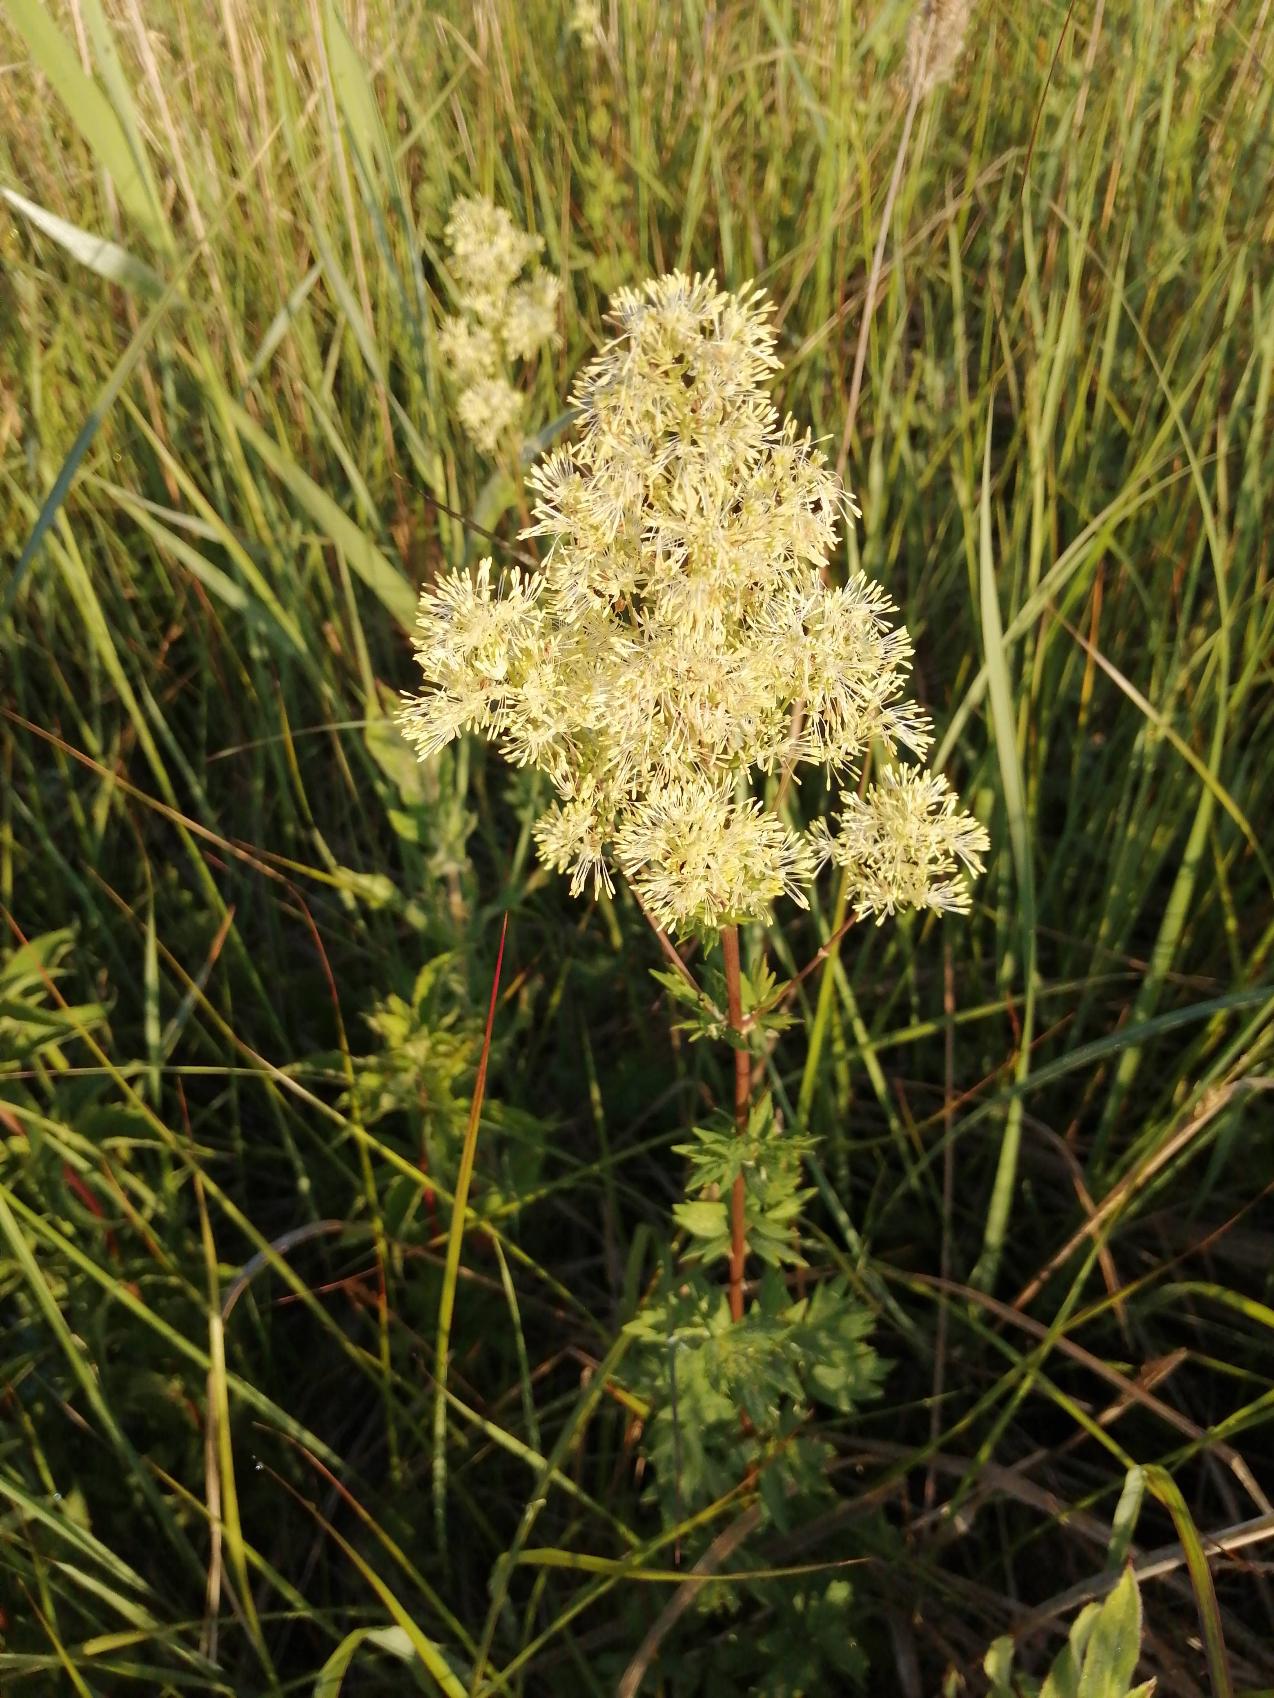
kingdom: Plantae
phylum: Tracheophyta
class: Magnoliopsida
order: Ranunculales
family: Ranunculaceae
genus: Thalictrum
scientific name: Thalictrum flavum
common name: Gul frøstjerne
